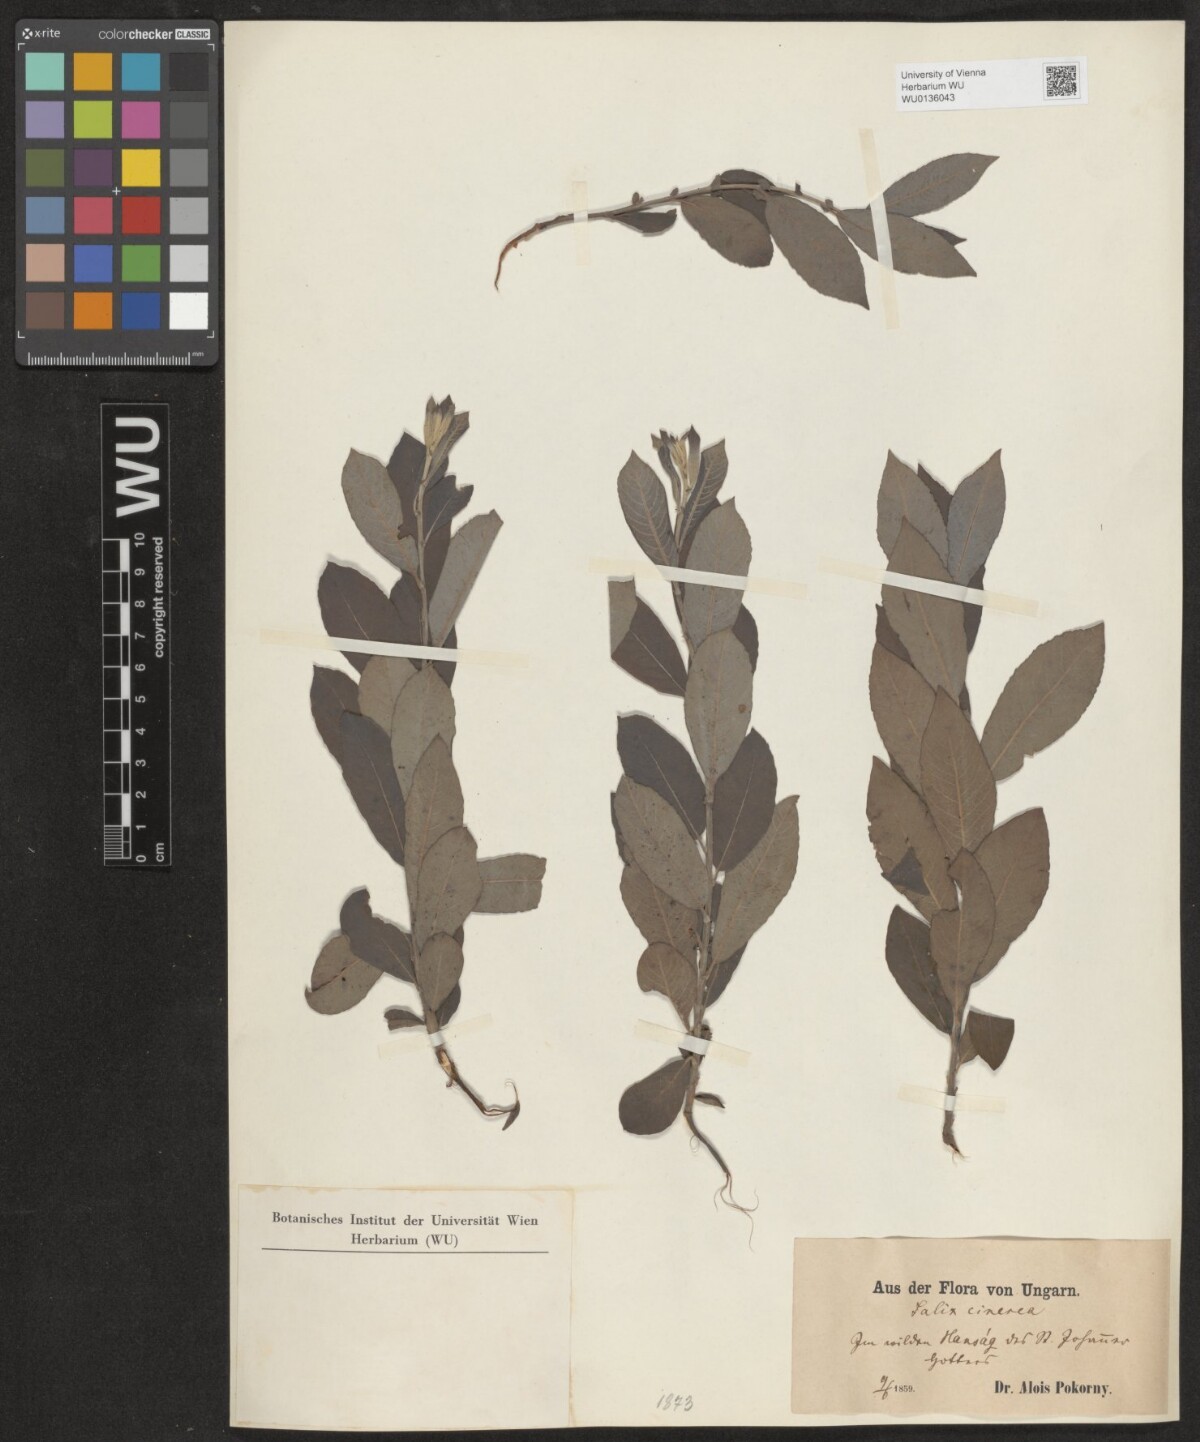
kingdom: Plantae
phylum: Tracheophyta
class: Magnoliopsida
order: Malpighiales
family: Salicaceae
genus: Salix
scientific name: Salix cinerea
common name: Common sallow
